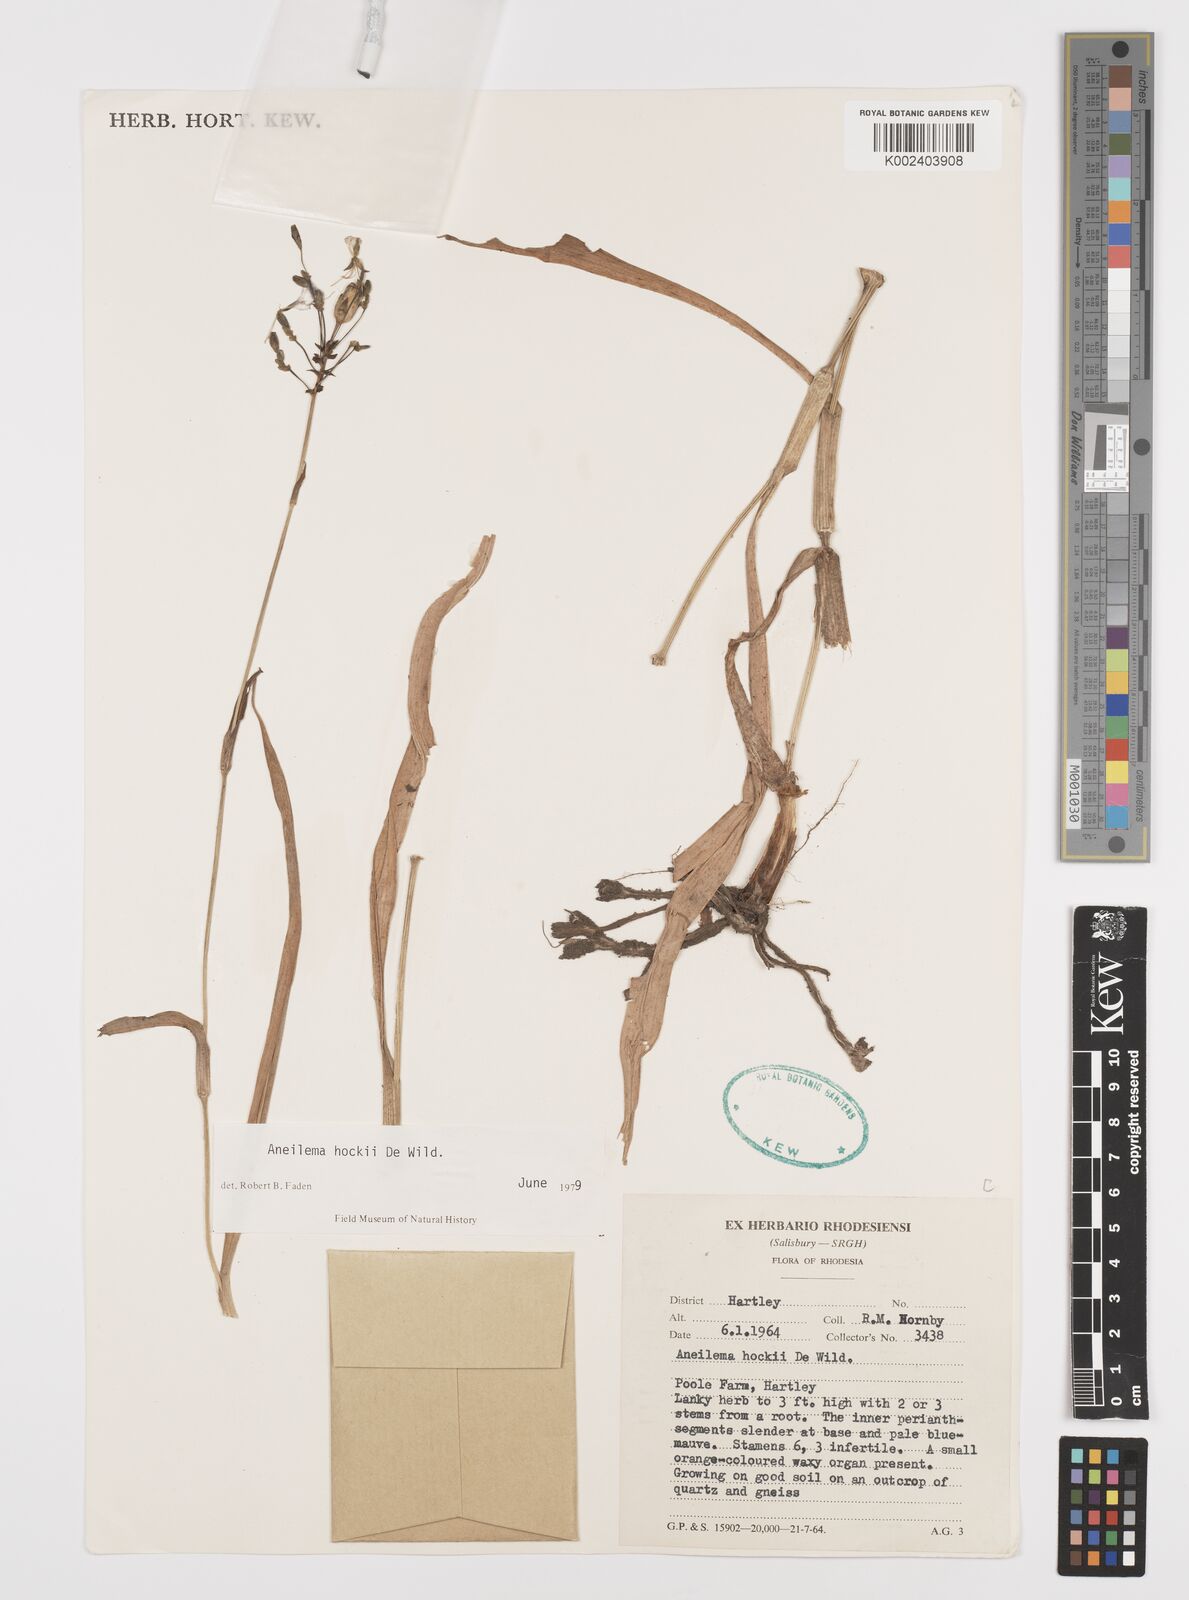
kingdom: Plantae
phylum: Tracheophyta
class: Liliopsida
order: Commelinales
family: Commelinaceae
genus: Aneilema
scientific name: Aneilema hockii
